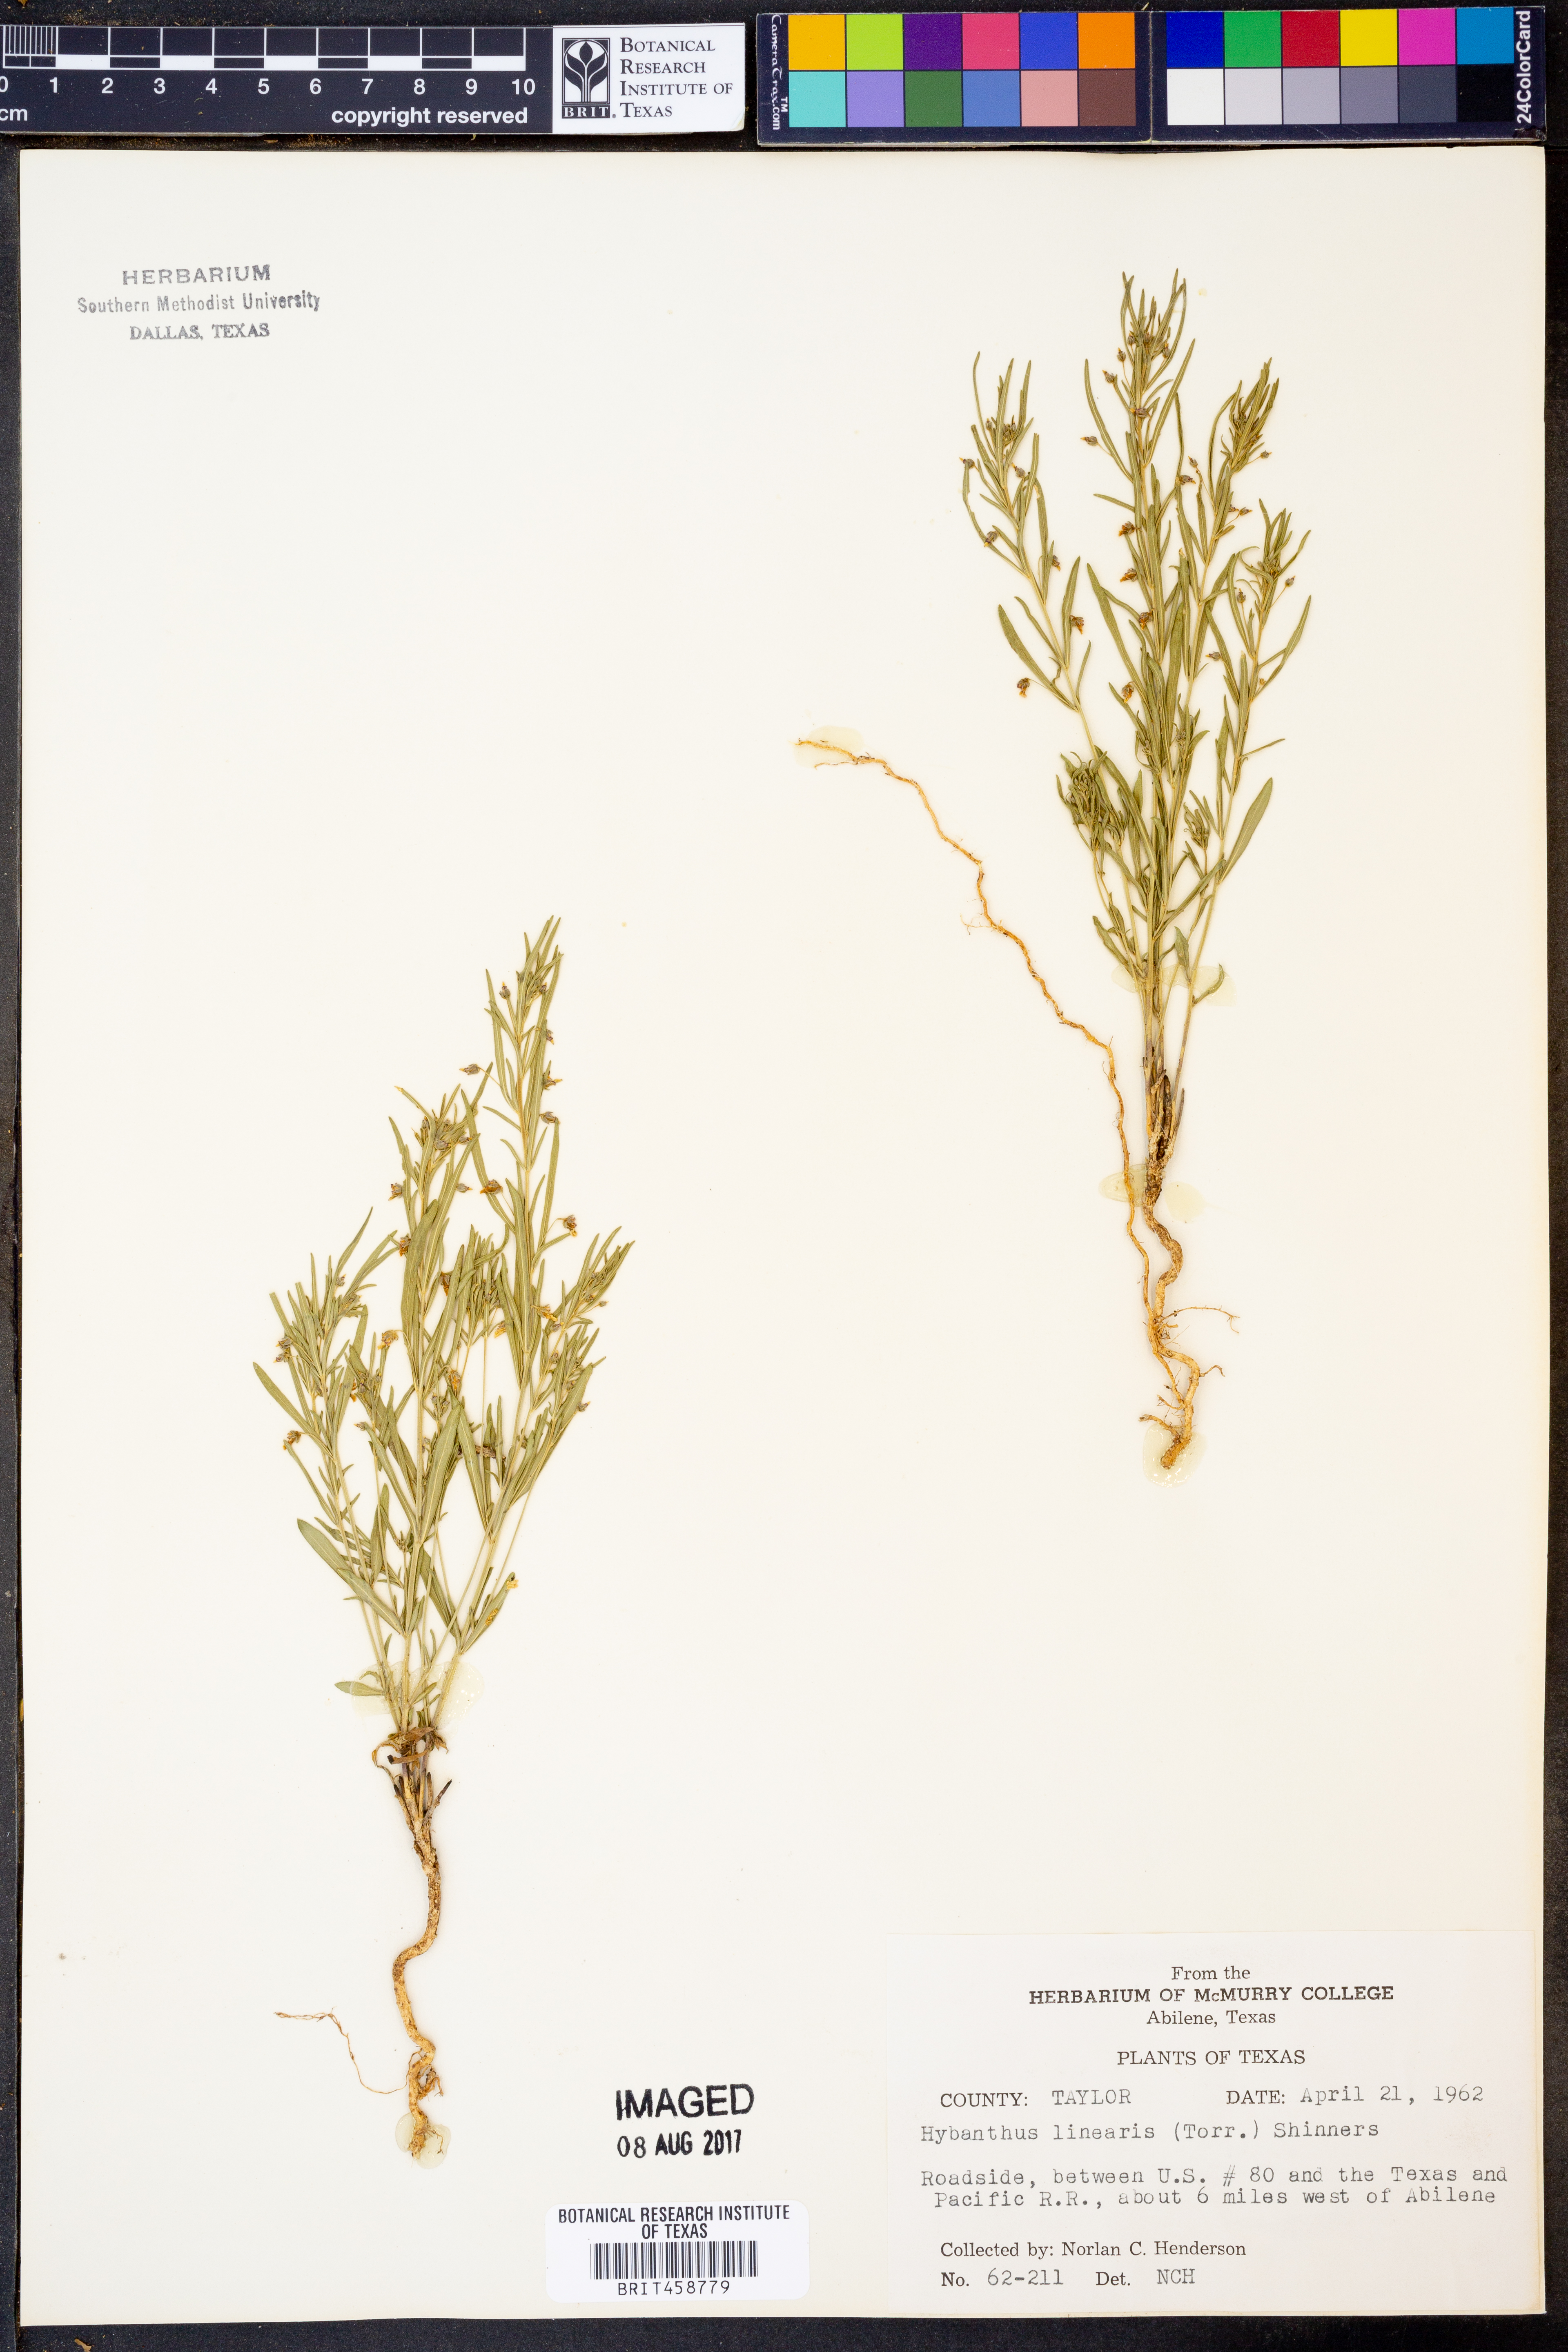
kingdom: Plantae
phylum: Tracheophyta
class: Magnoliopsida
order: Malpighiales
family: Violaceae
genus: Pombalia
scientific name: Pombalia verticillata
